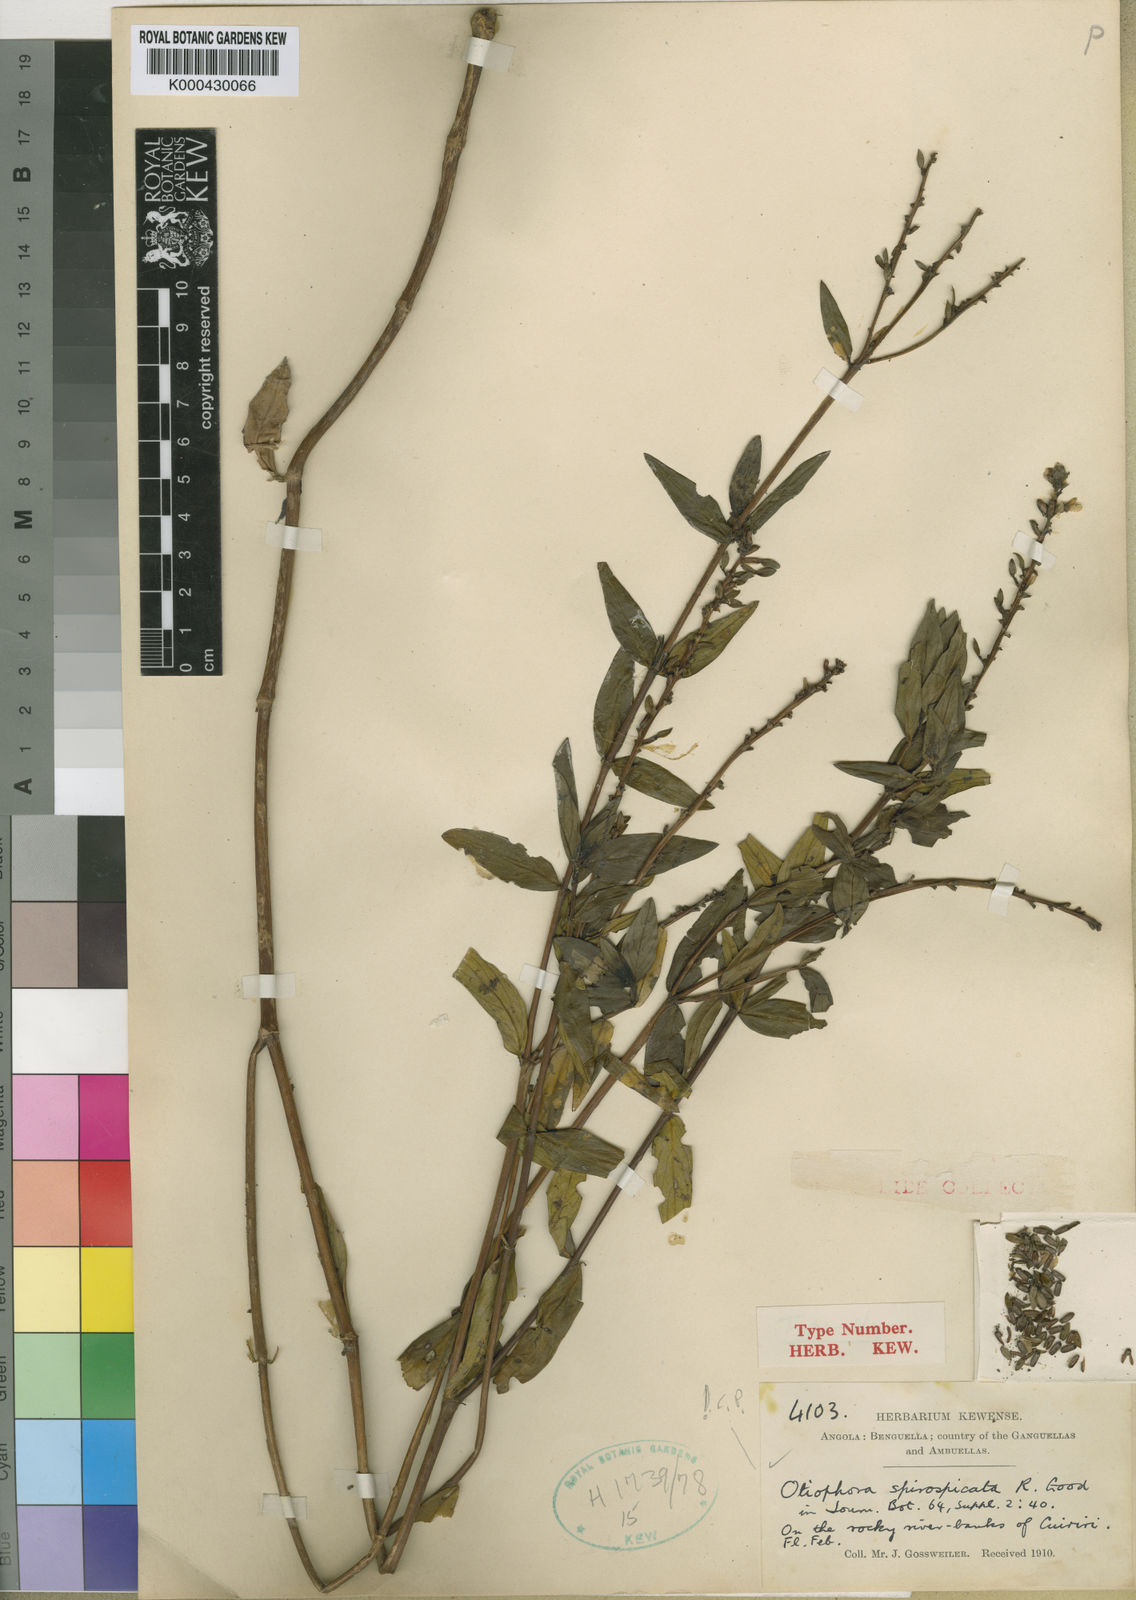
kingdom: Plantae
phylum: Tracheophyta
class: Magnoliopsida
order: Gentianales
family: Rubiaceae
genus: Otiophora
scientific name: Otiophora spirospicata
